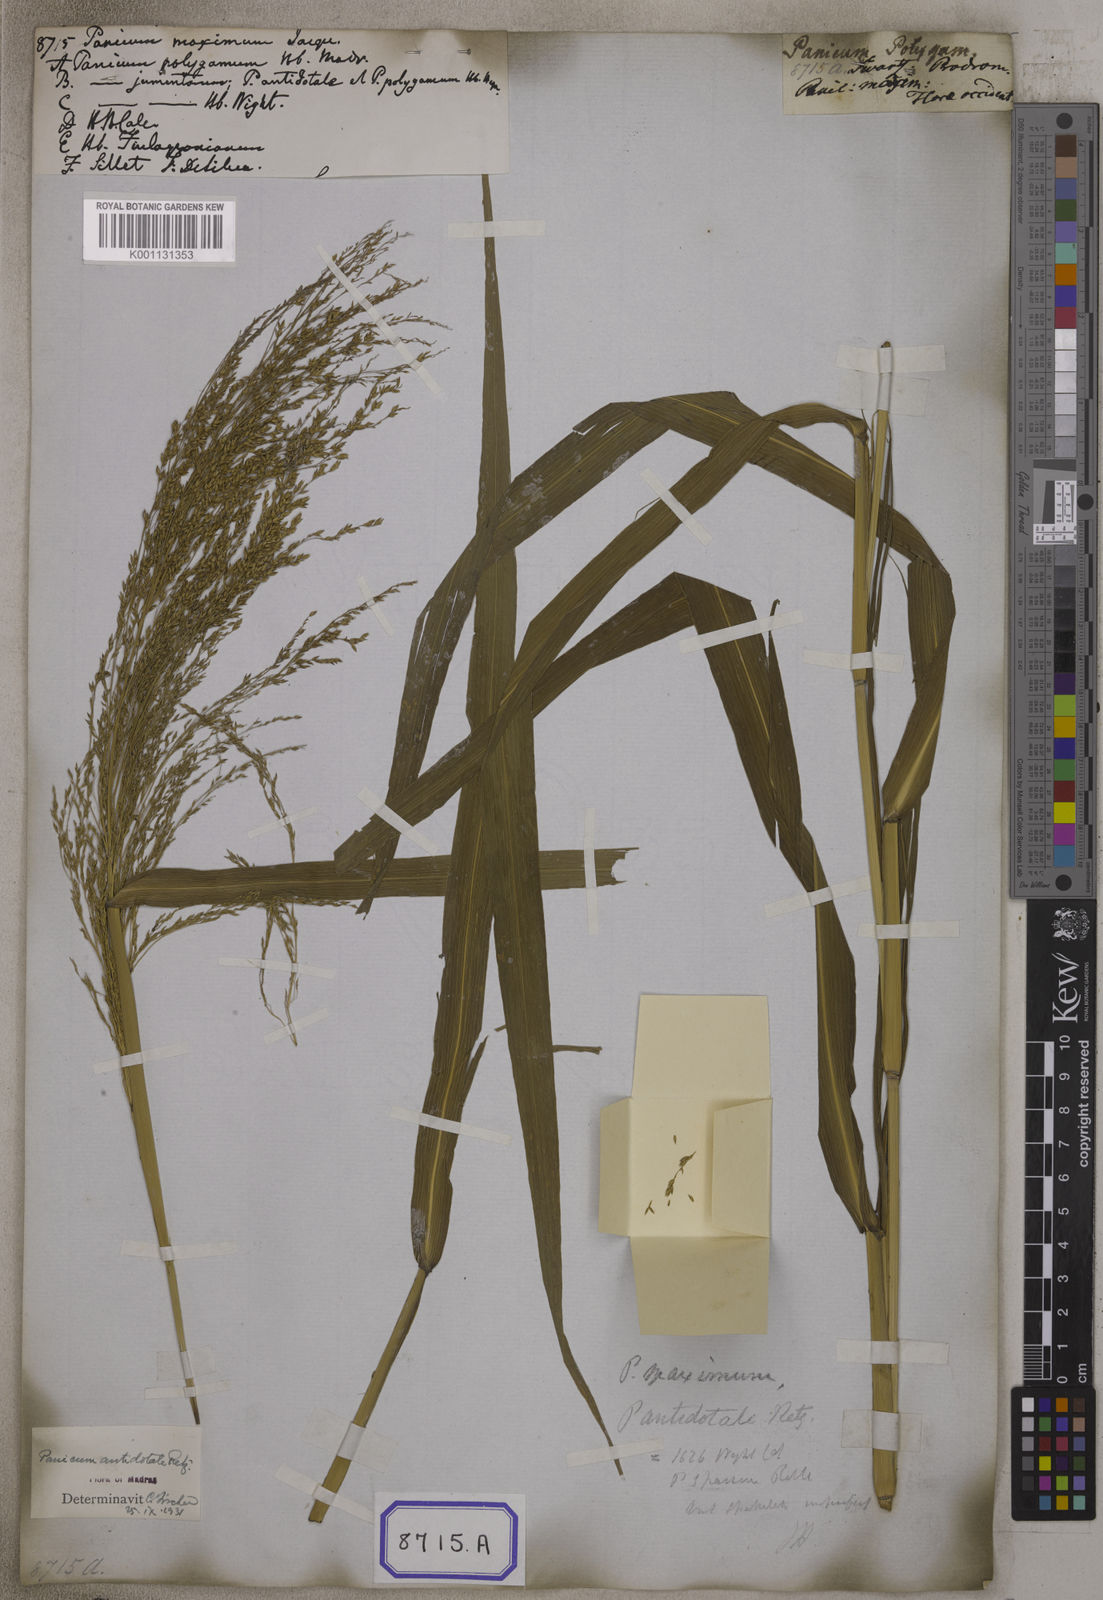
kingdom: Plantae
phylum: Tracheophyta
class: Liliopsida
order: Poales
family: Poaceae
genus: Megathyrsus
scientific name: Megathyrsus maximus
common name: Guineagrass
